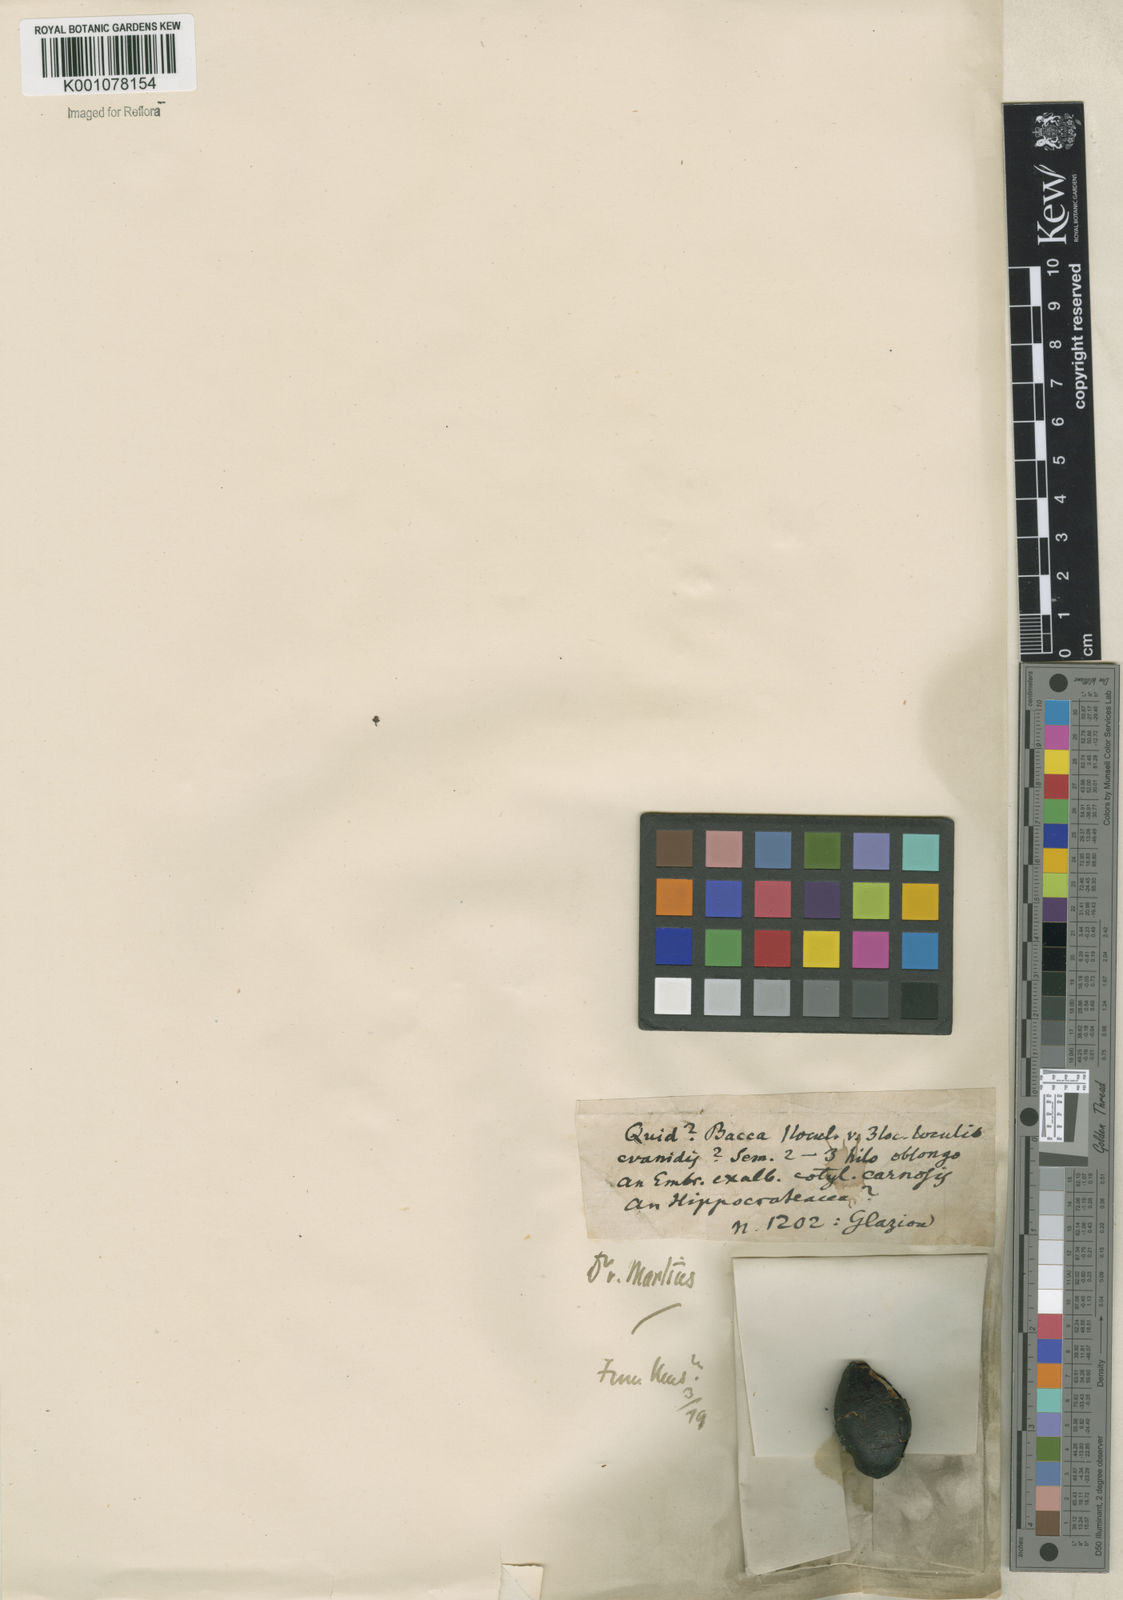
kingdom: Plantae
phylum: Tracheophyta
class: Magnoliopsida
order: Celastrales
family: Celastraceae
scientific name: Celastraceae
